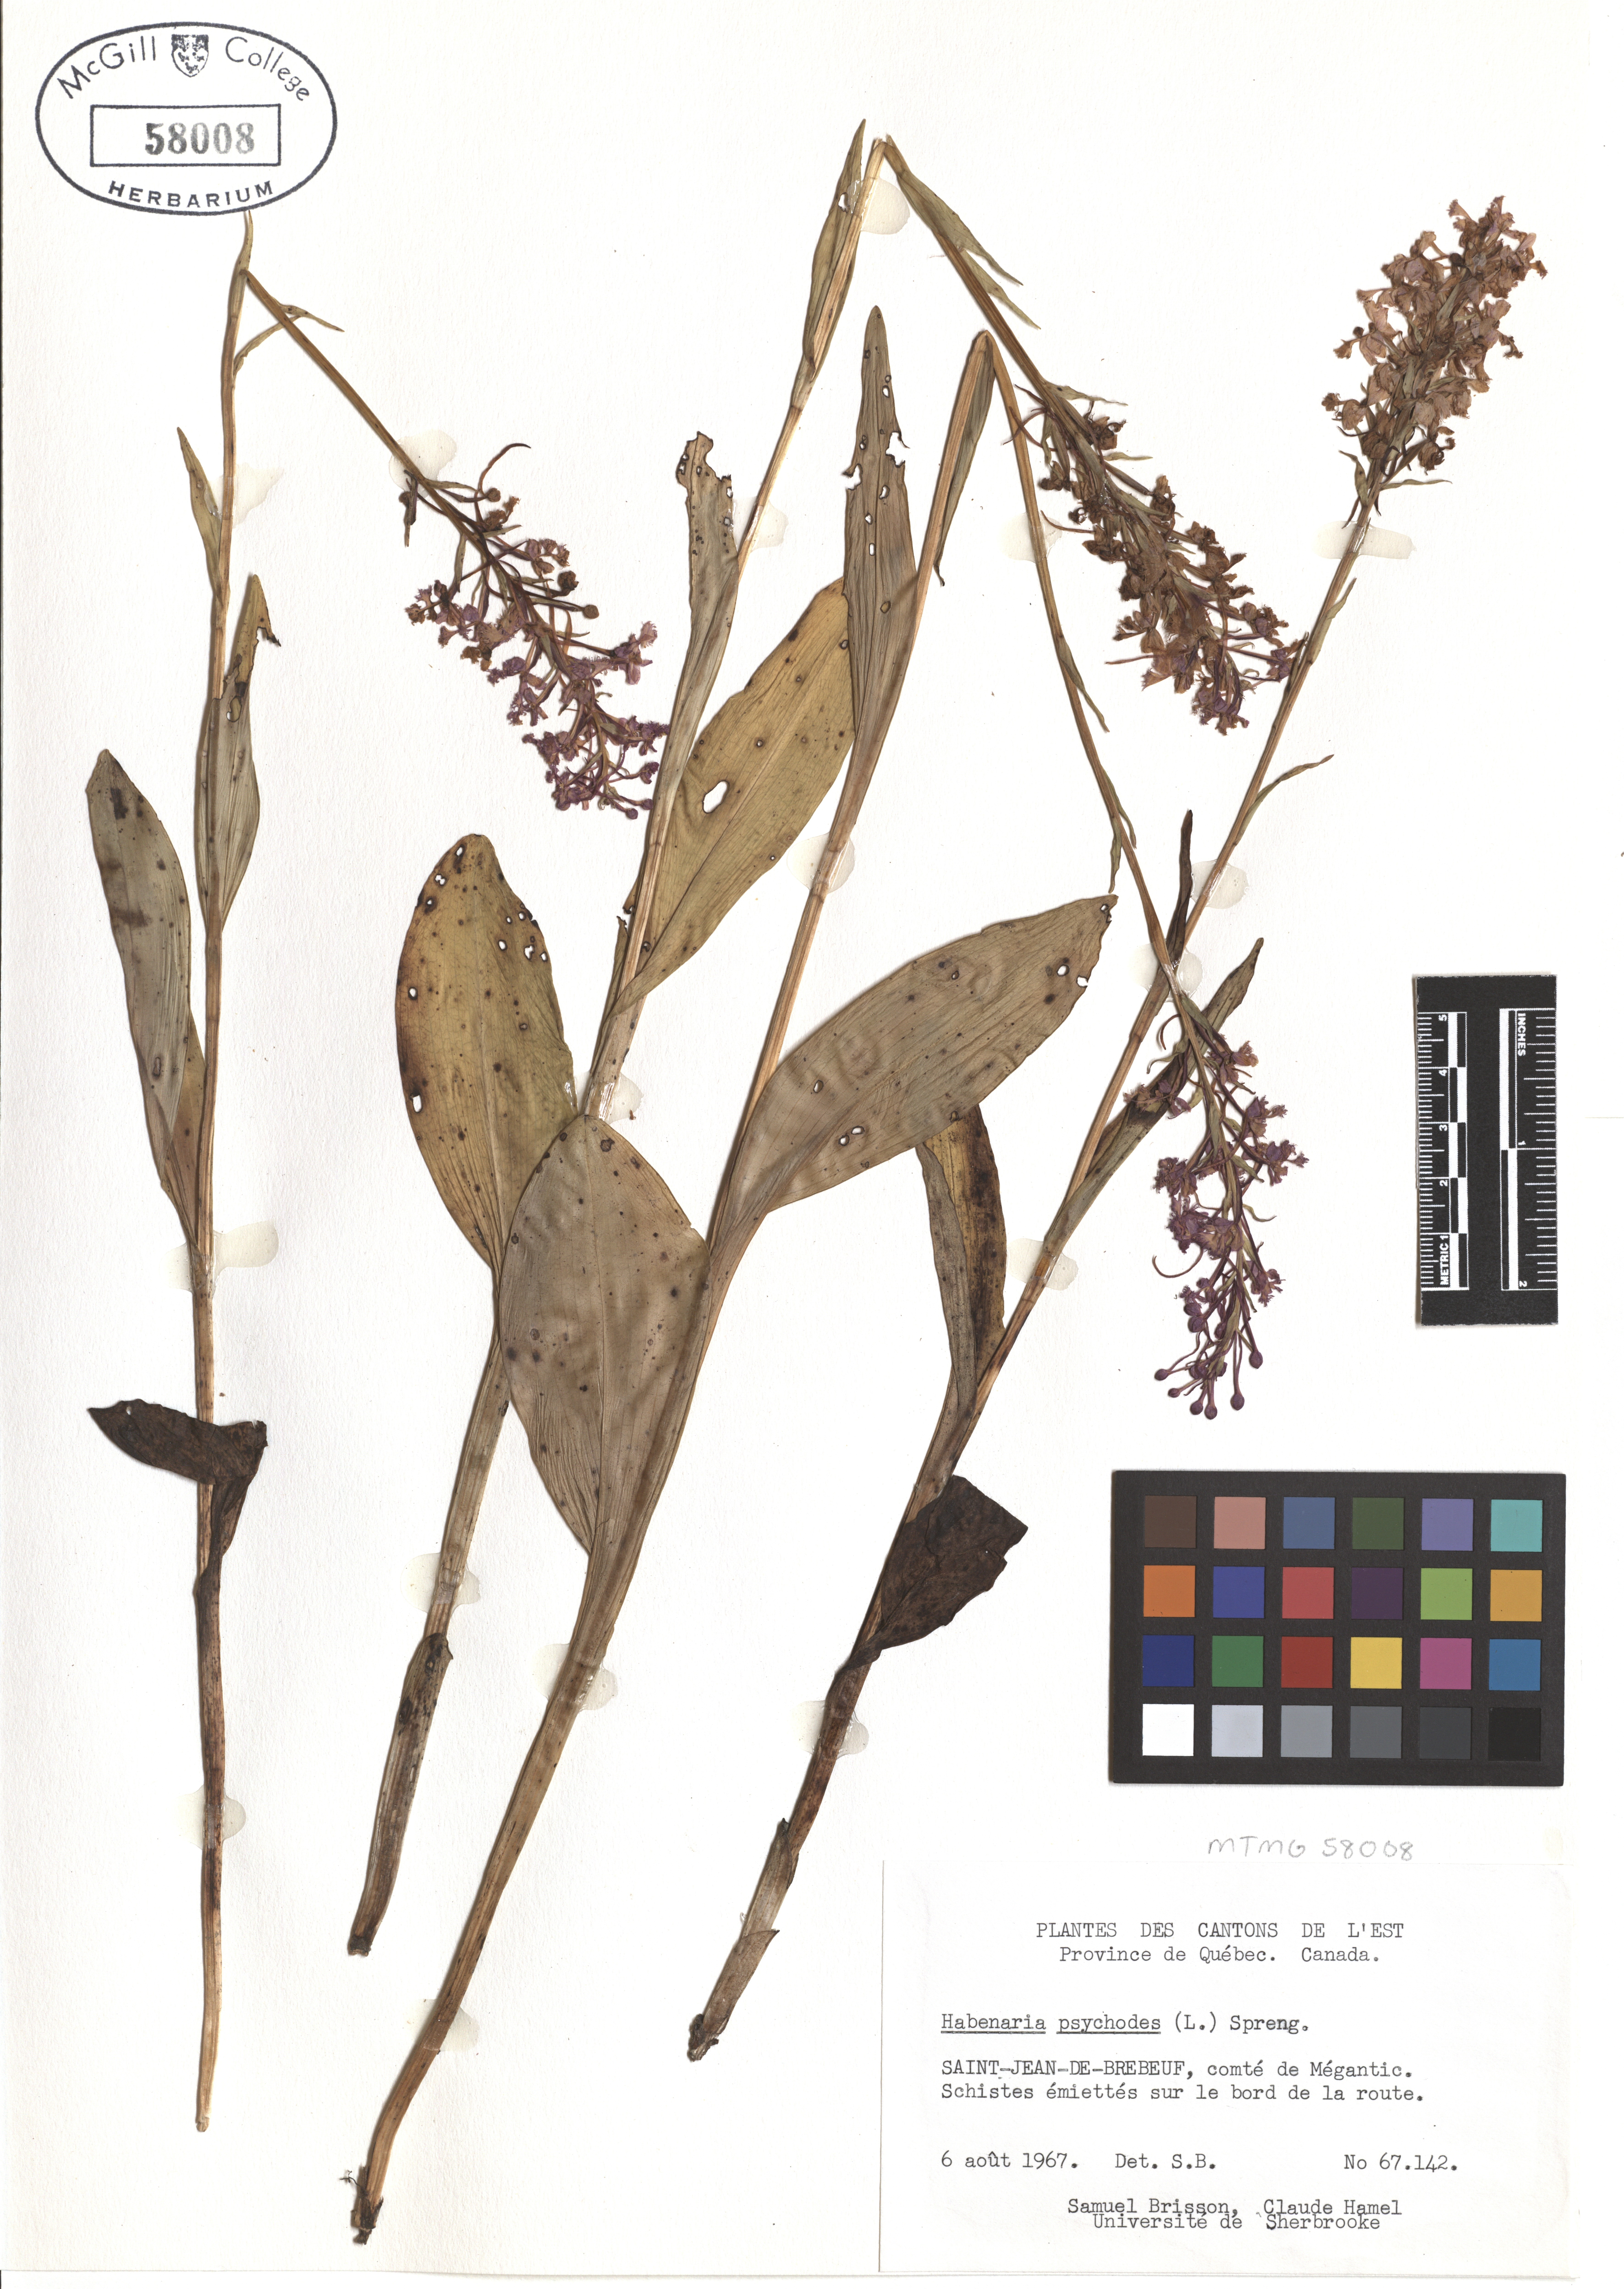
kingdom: Plantae
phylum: Tracheophyta
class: Liliopsida
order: Asparagales
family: Orchidaceae
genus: Platanthera
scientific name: Platanthera psycodes
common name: Lesser purple fringed orchid
